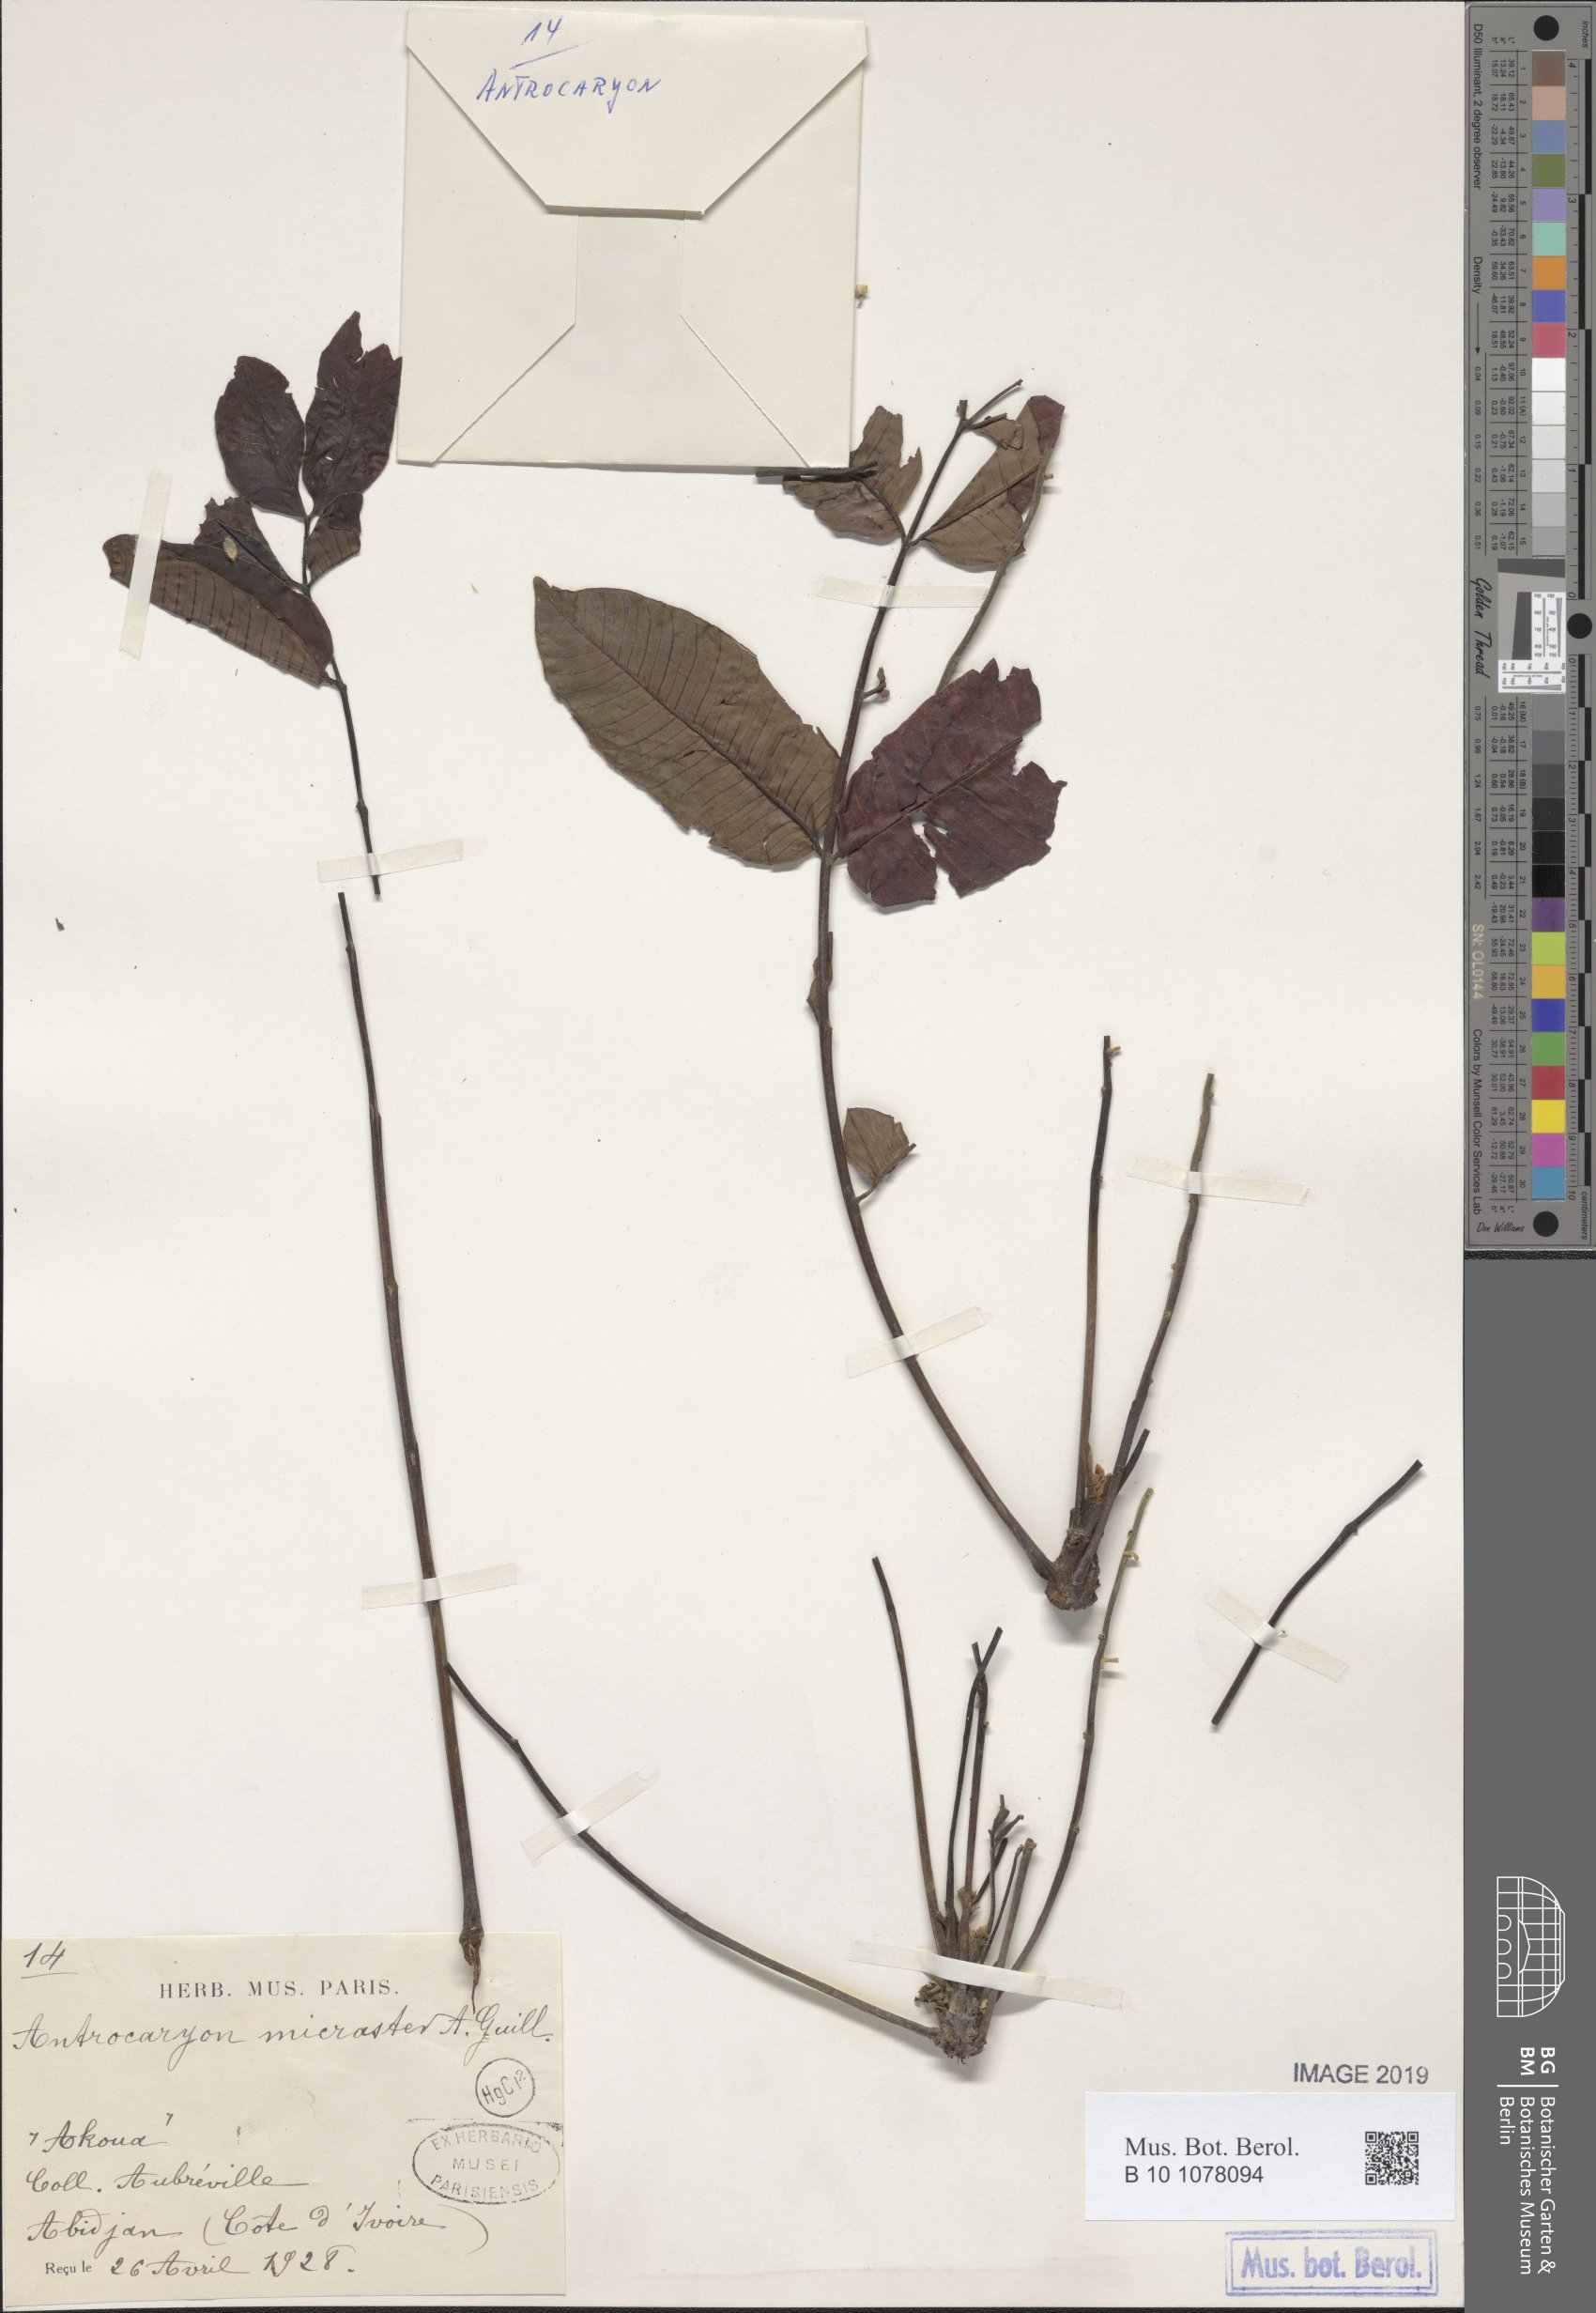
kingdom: Plantae
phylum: Tracheophyta
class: Magnoliopsida
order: Sapindales
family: Anacardiaceae
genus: Antrocaryon
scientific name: Antrocaryon micraster
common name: Antrocaryon
